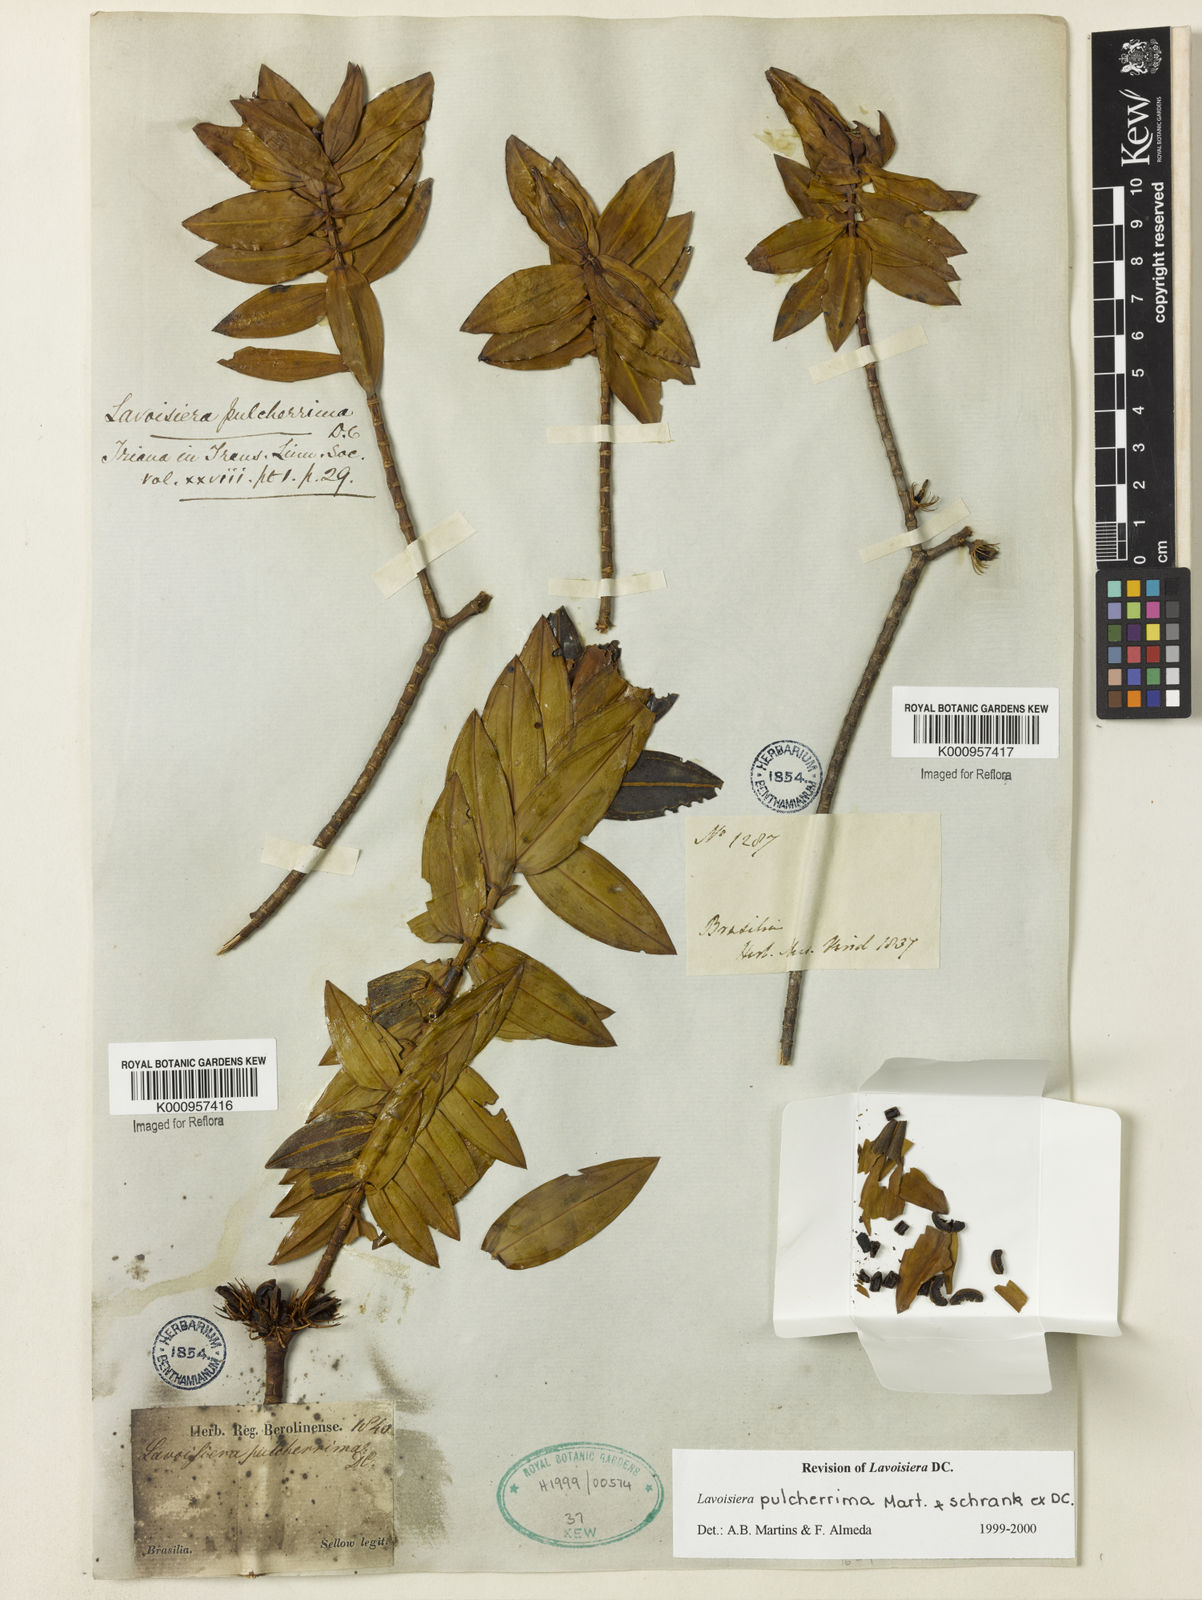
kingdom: Plantae
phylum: Tracheophyta
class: Magnoliopsida
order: Myrtales
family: Melastomataceae
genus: Microlicia
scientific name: Microlicia pulcherrima
